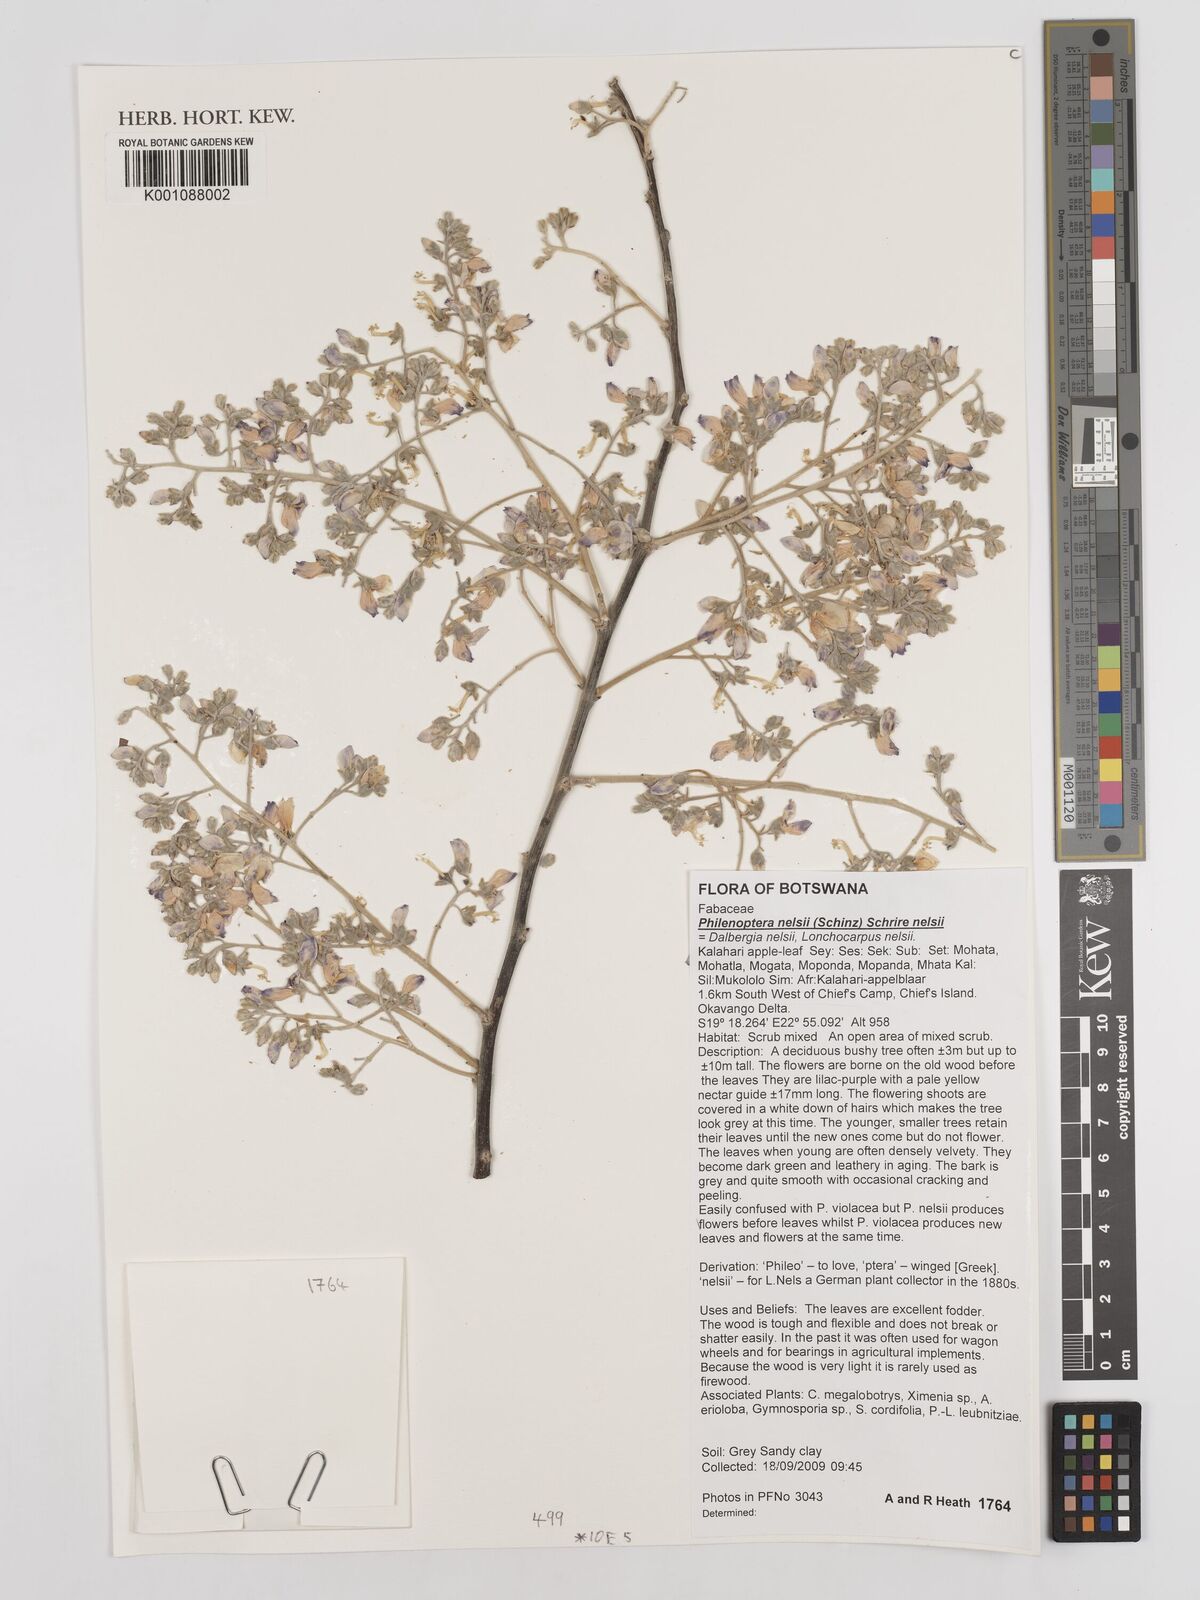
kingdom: Plantae
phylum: Tracheophyta
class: Magnoliopsida
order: Fabales
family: Fabaceae
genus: Philenoptera
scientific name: Philenoptera nelsii
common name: Kalahari apple-leaf
